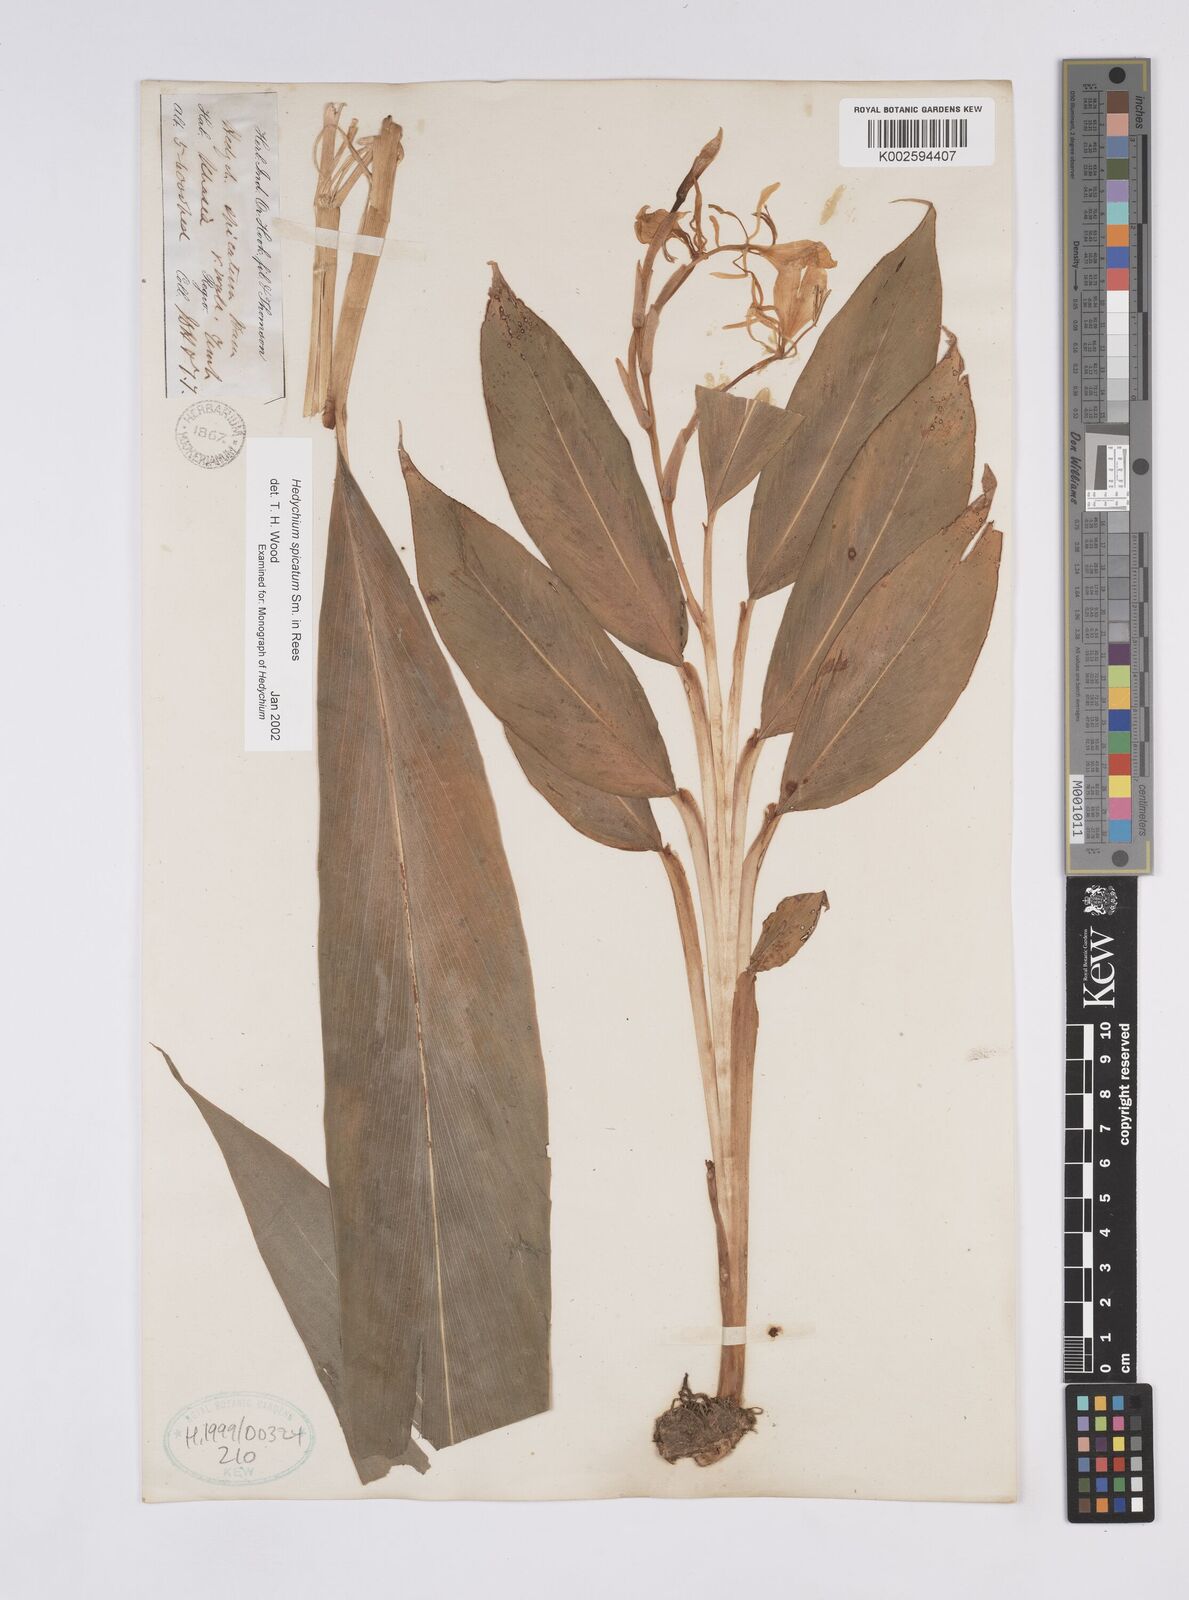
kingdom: Plantae
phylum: Tracheophyta
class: Liliopsida
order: Zingiberales
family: Zingiberaceae
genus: Hedychium
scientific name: Hedychium spicatum
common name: Spiked ginger-lily
